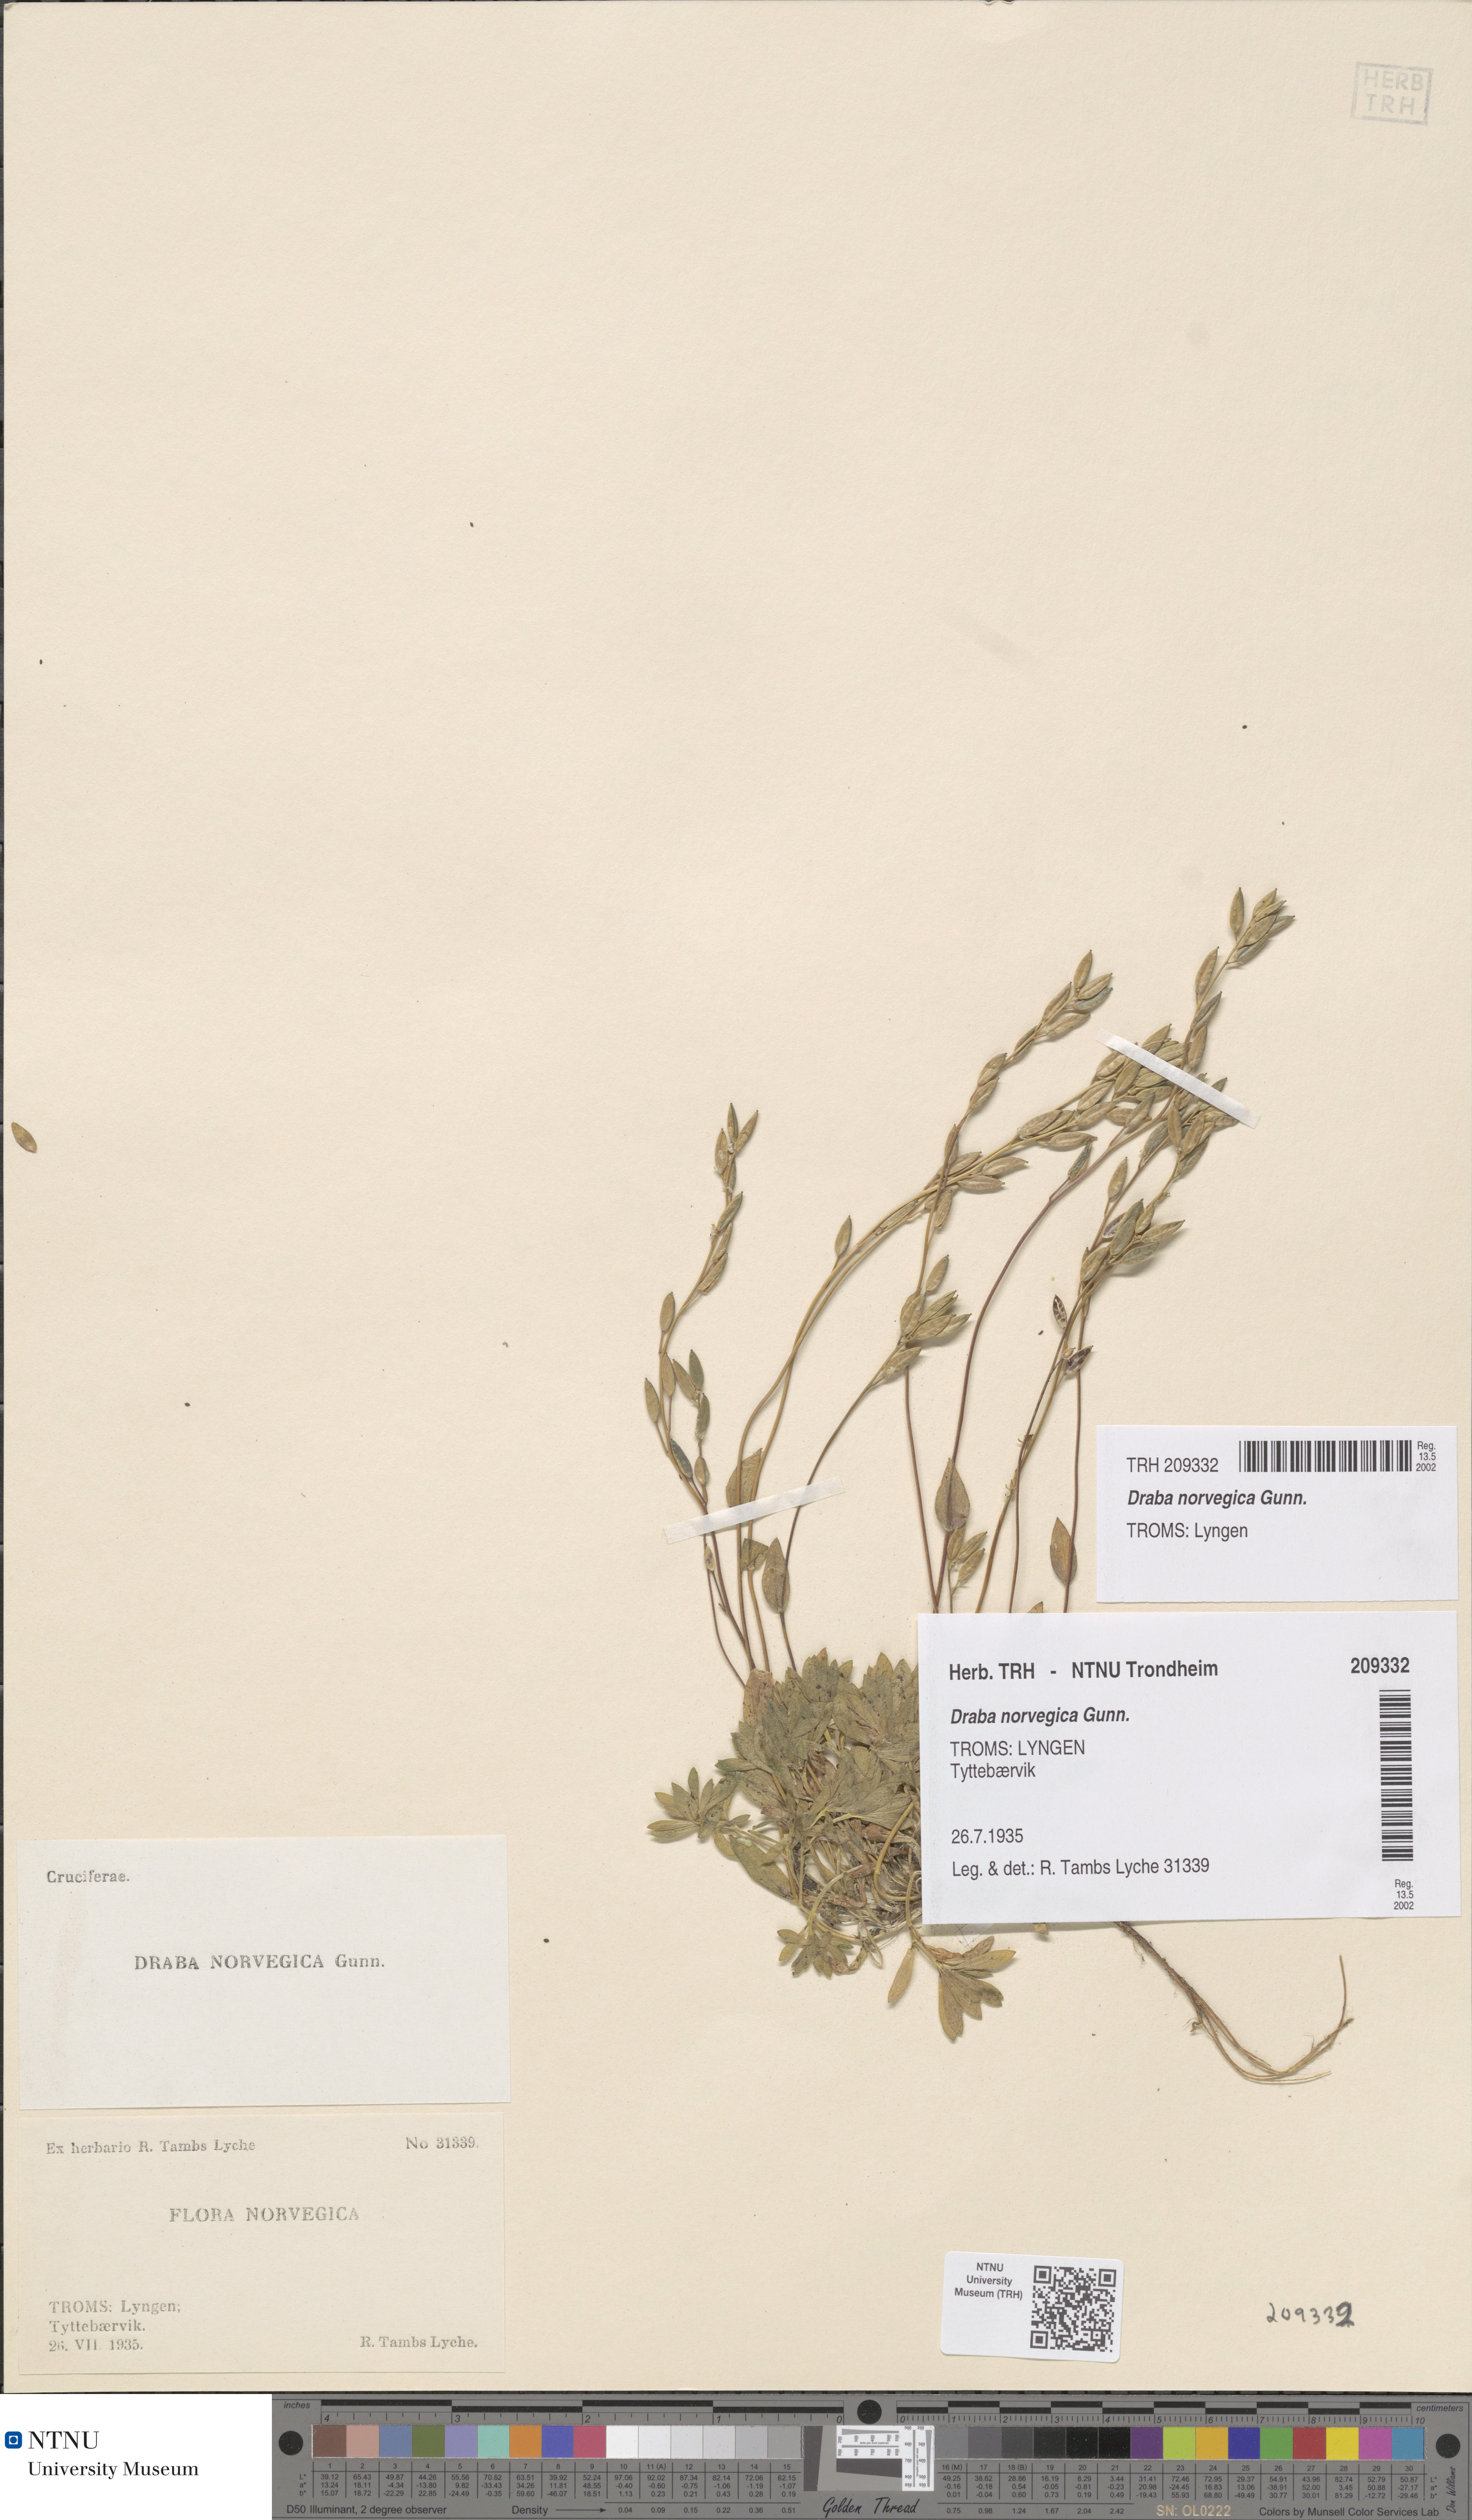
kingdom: Plantae
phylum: Tracheophyta
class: Magnoliopsida
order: Brassicales
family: Brassicaceae
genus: Draba
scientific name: Draba norvegica
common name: Rock whitlowgrass
